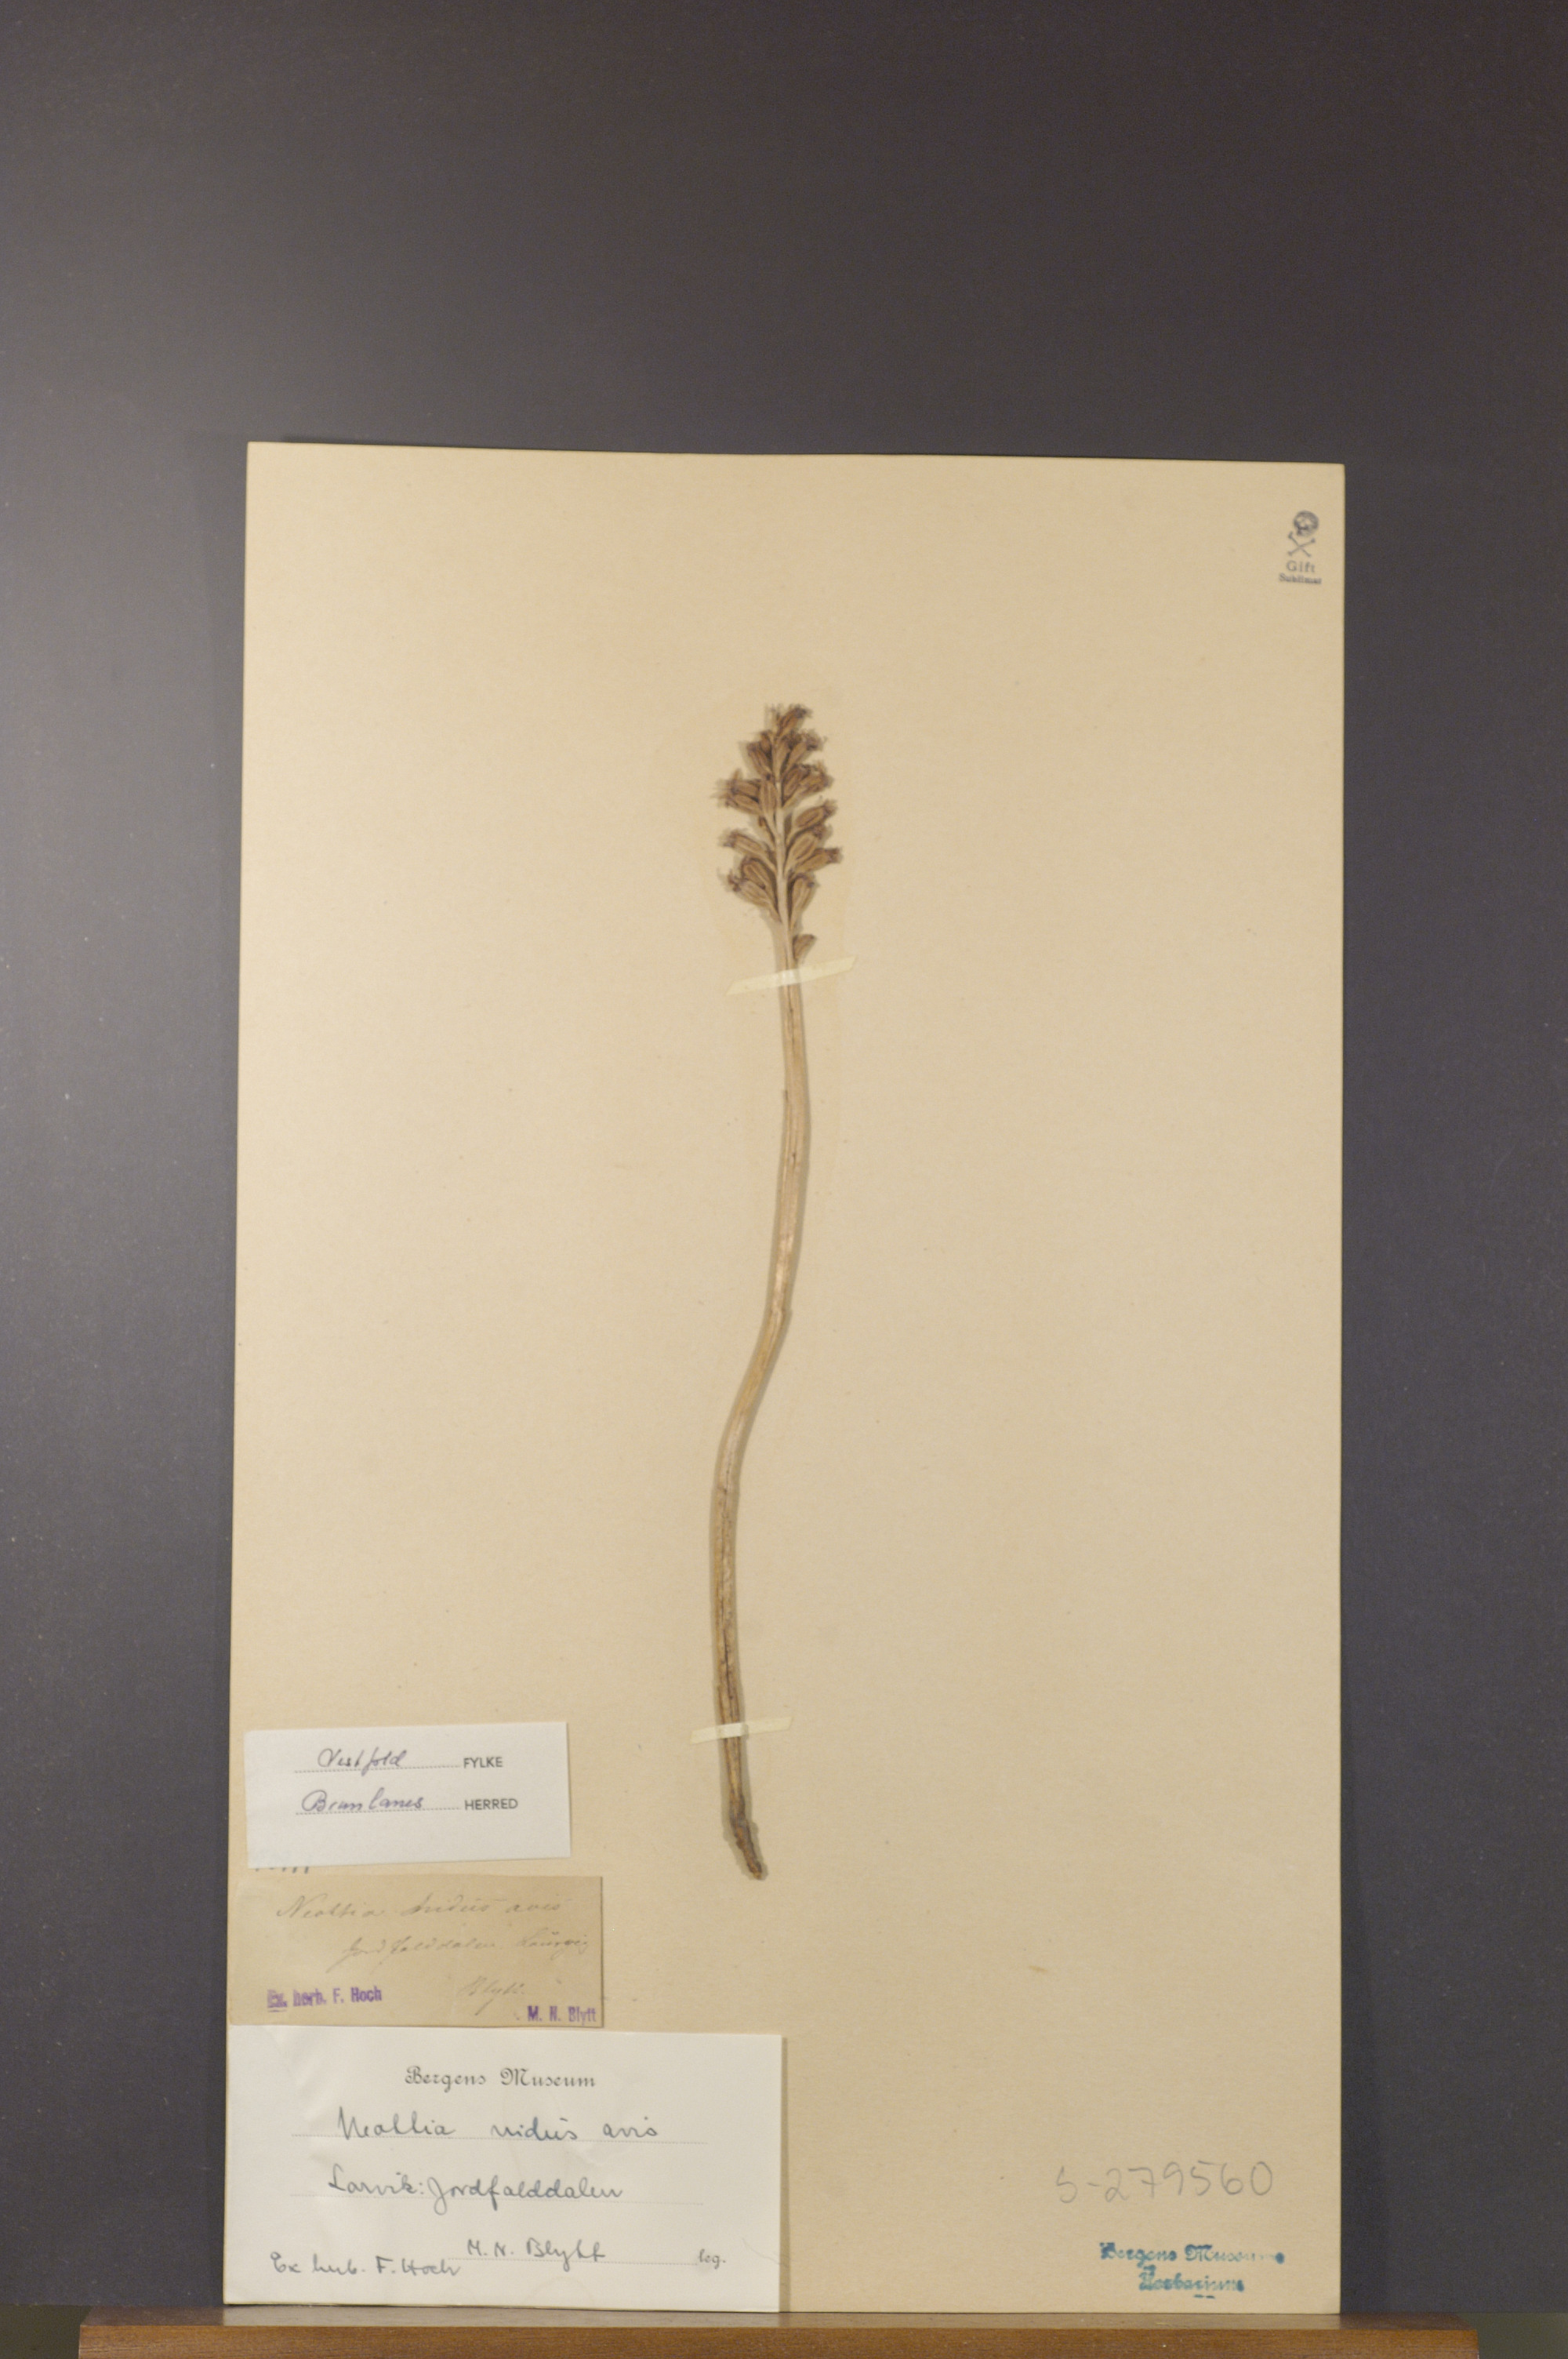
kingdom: Plantae
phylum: Tracheophyta
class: Liliopsida
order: Asparagales
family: Orchidaceae
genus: Neottia
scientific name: Neottia nidus-avis
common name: Bird's-nest orchid
